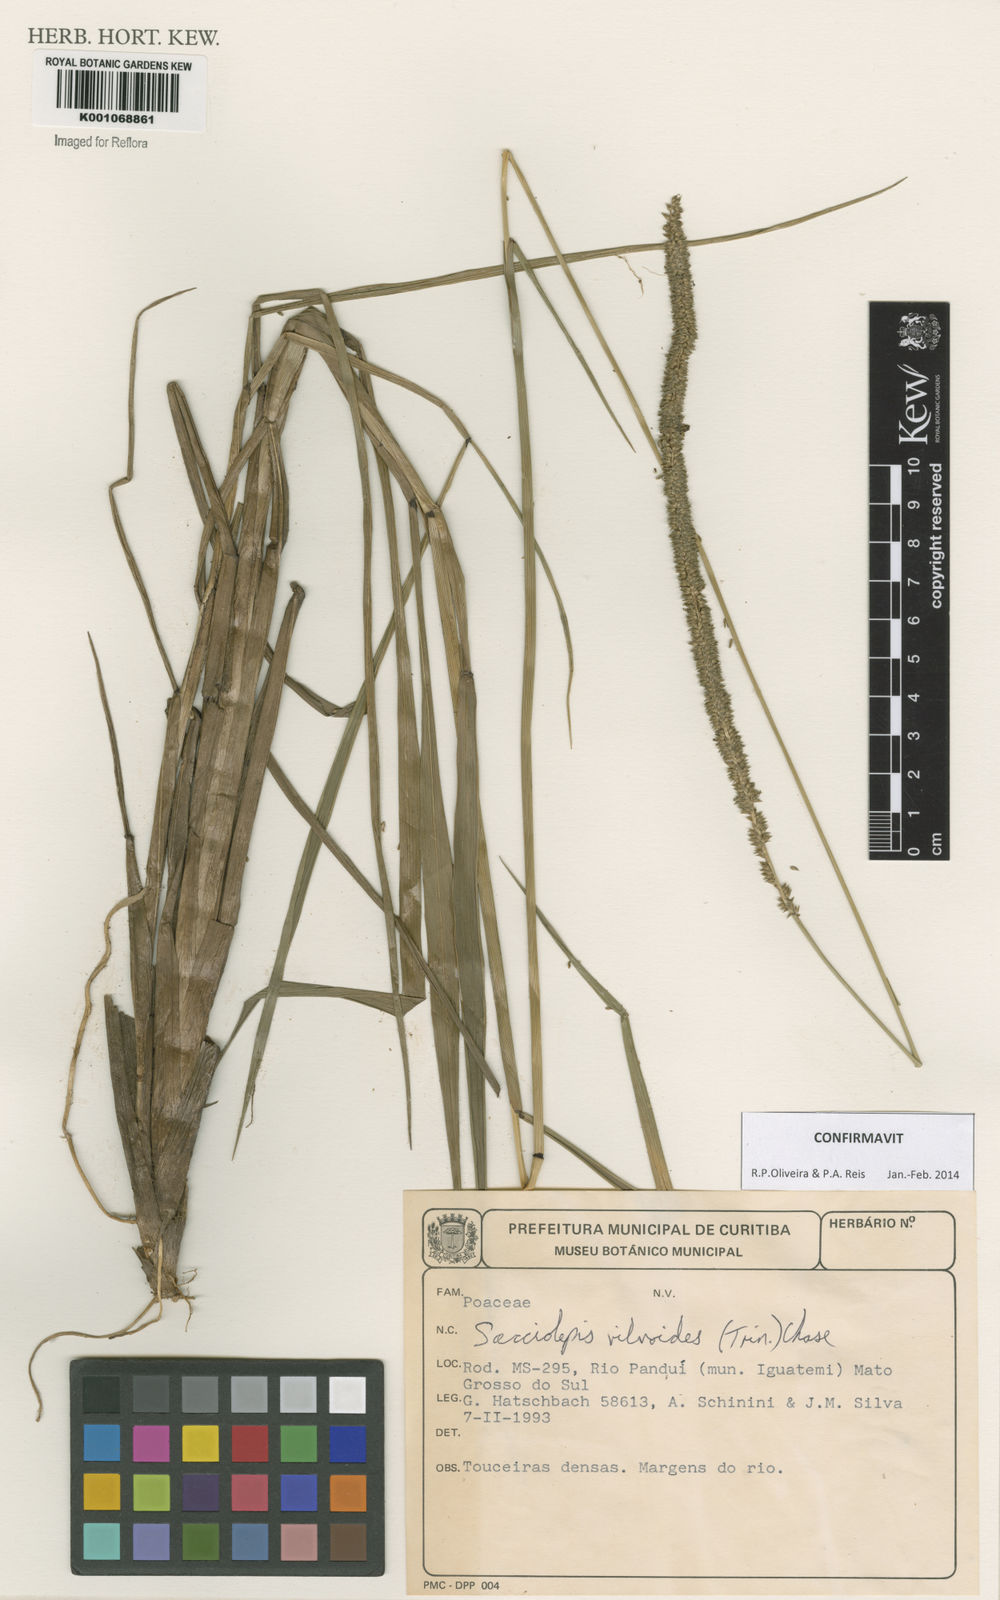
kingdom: Plantae
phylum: Tracheophyta
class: Liliopsida
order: Poales
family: Poaceae
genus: Sacciolepis
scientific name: Sacciolepis vilvoides
